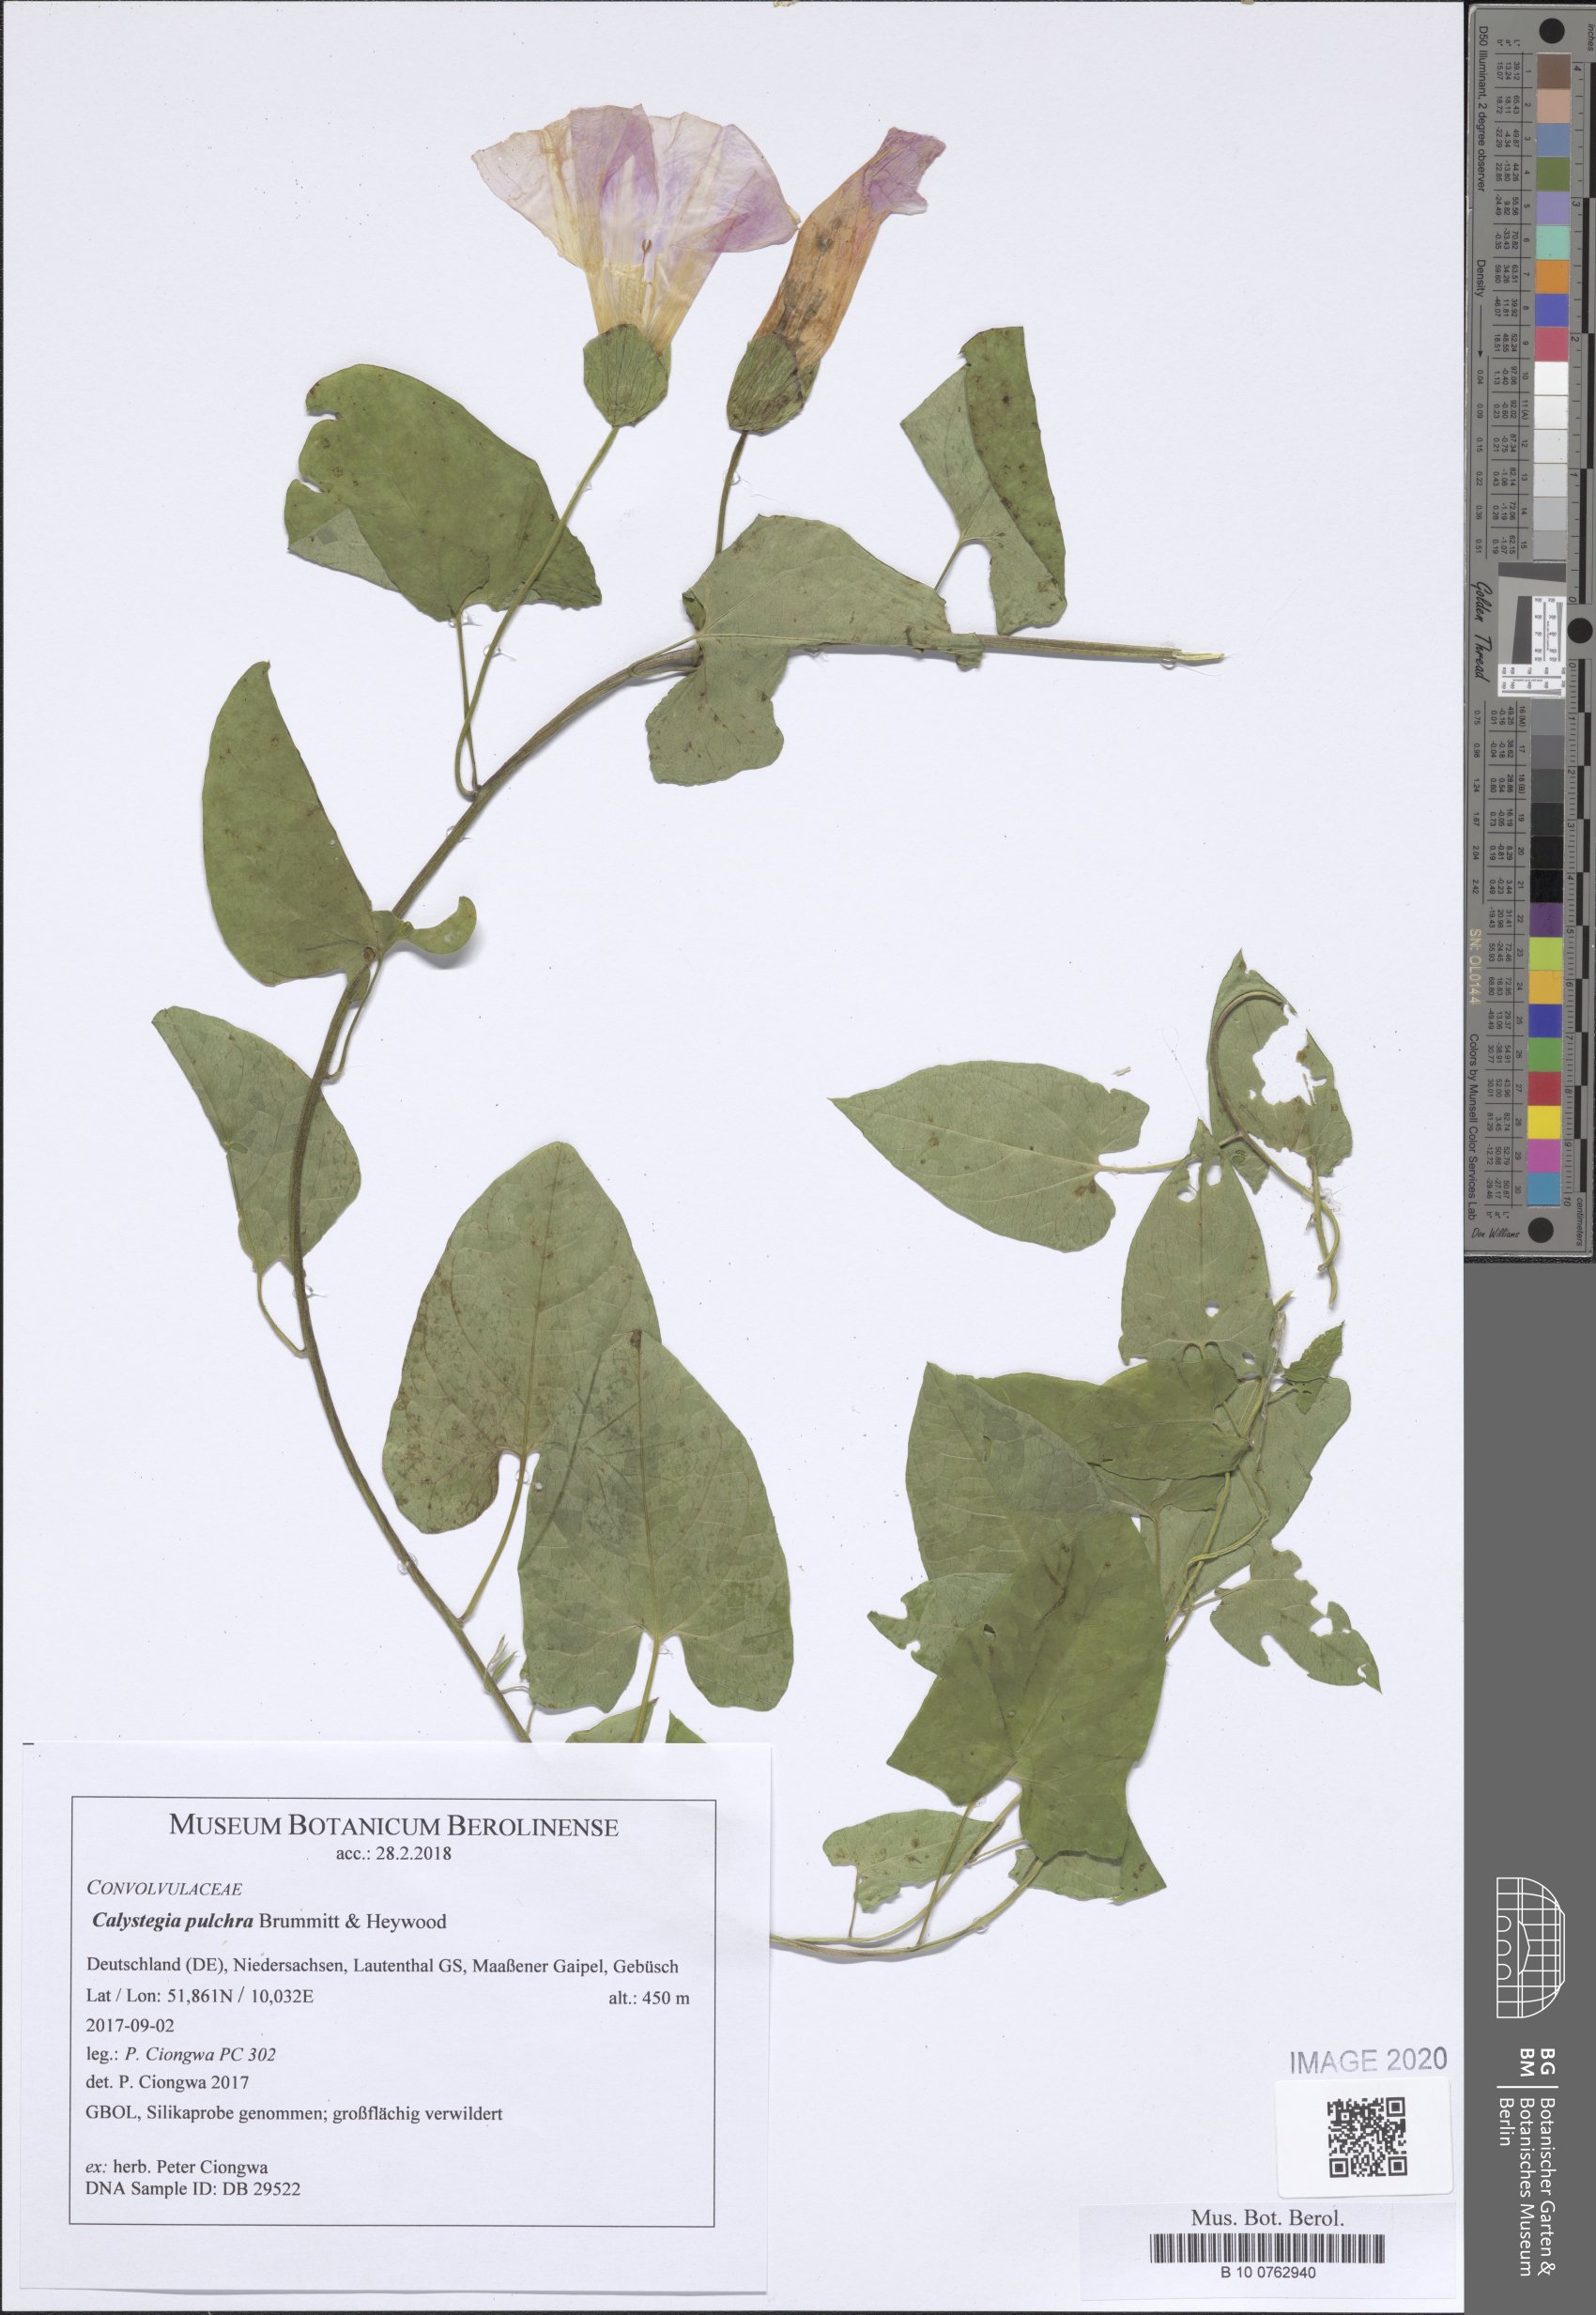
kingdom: Plantae
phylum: Tracheophyta
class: Magnoliopsida
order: Solanales
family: Convolvulaceae
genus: Calystegia
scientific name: Calystegia pulchra
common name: Hairy bindweed
